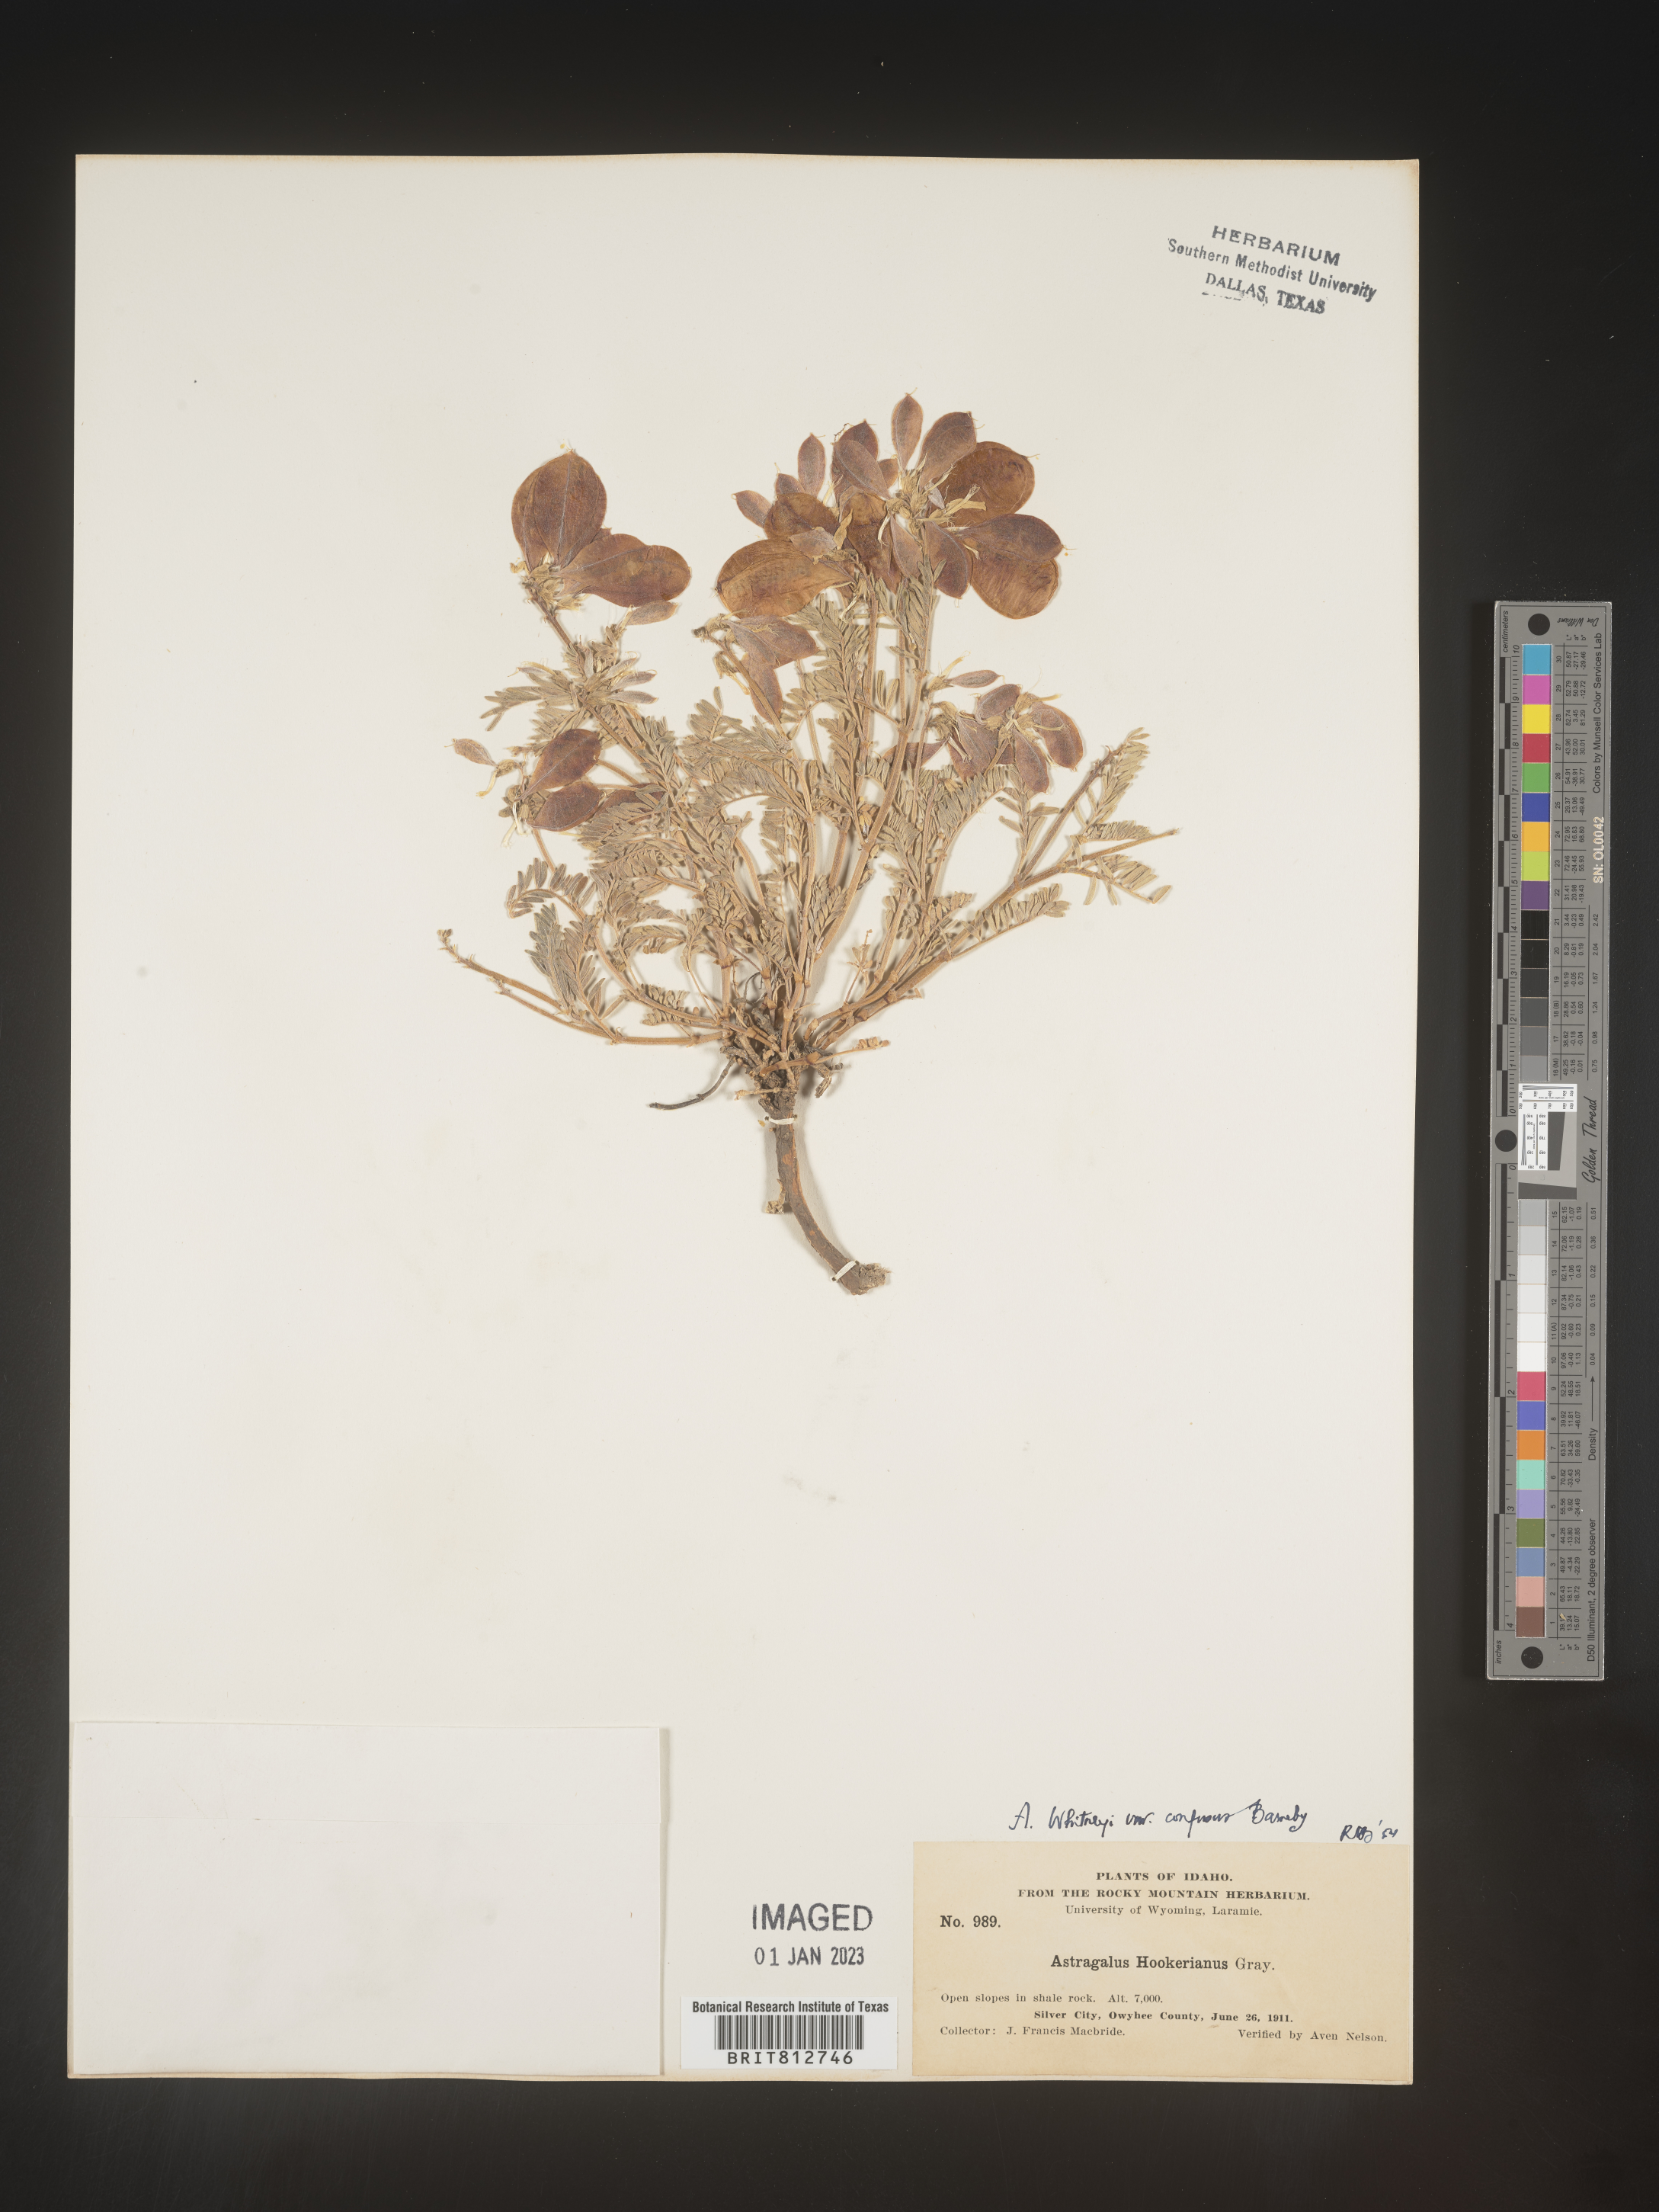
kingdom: Plantae
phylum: Tracheophyta
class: Magnoliopsida
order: Fabales
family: Fabaceae
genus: Astragalus
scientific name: Astragalus
